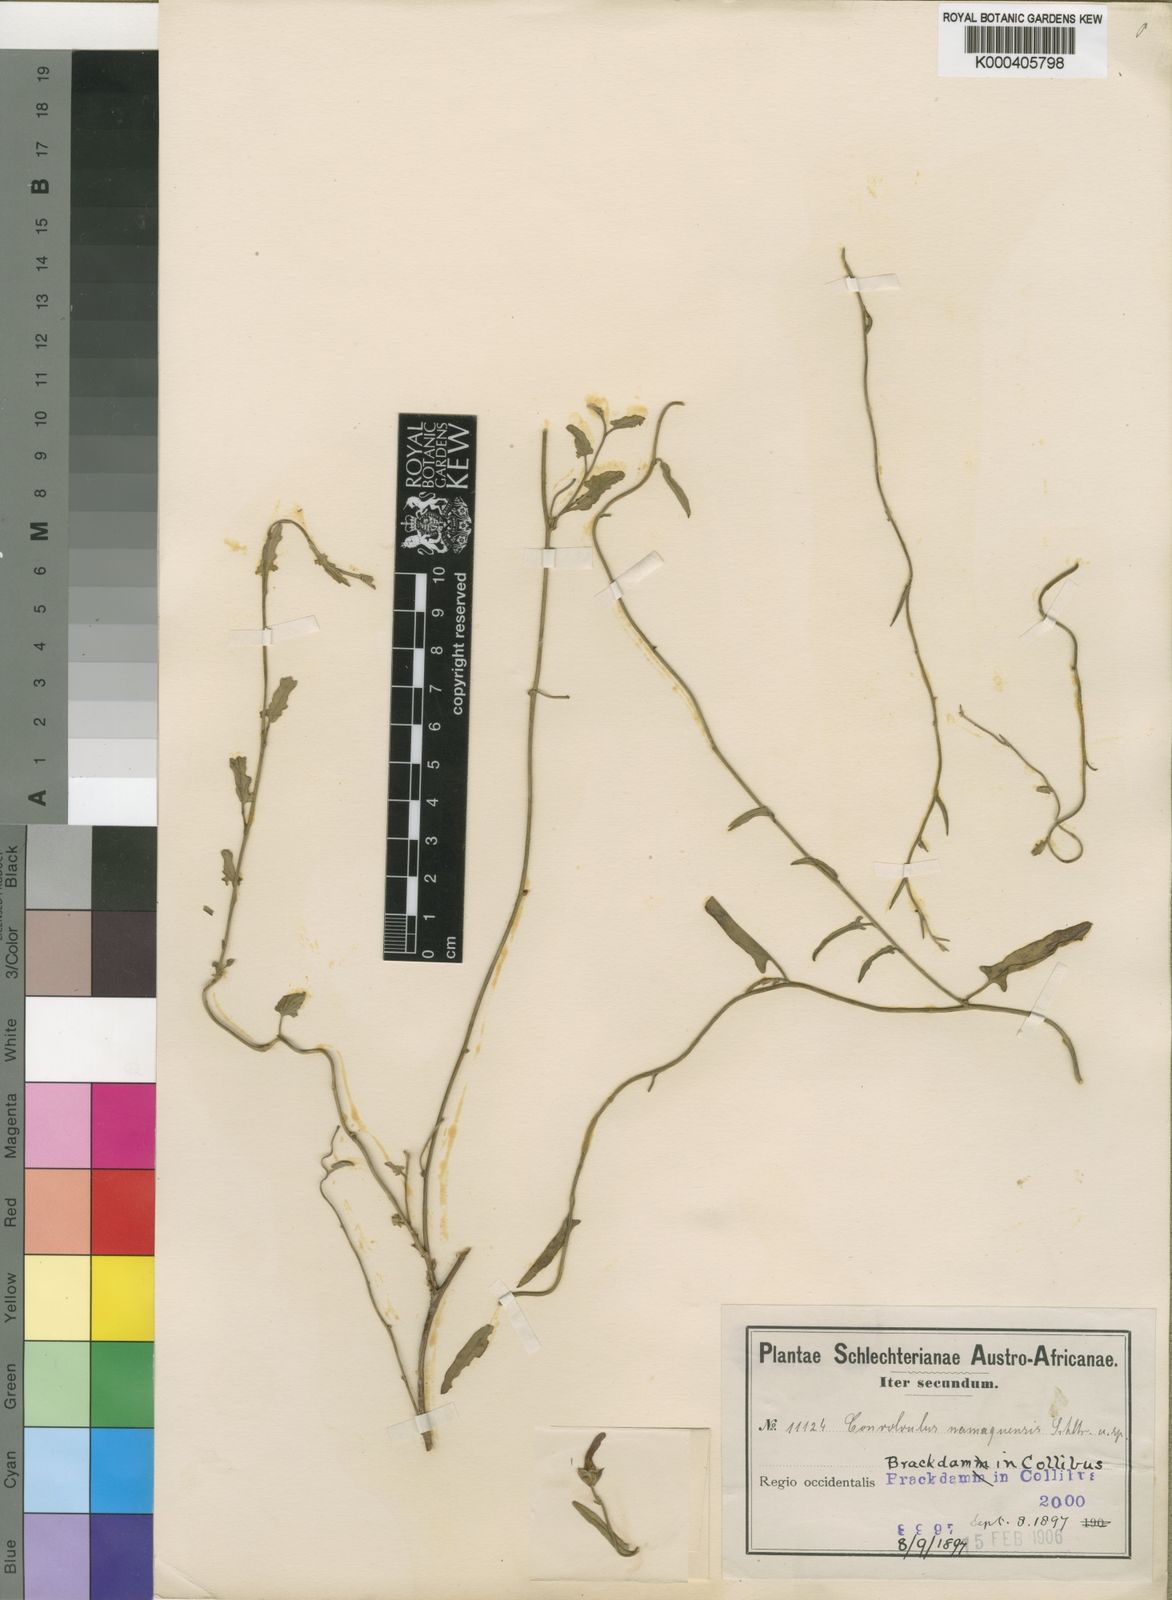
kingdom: Plantae
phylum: Tracheophyta
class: Magnoliopsida
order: Solanales
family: Convolvulaceae
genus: Convolvulus
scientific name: Convolvulus namaquensis
